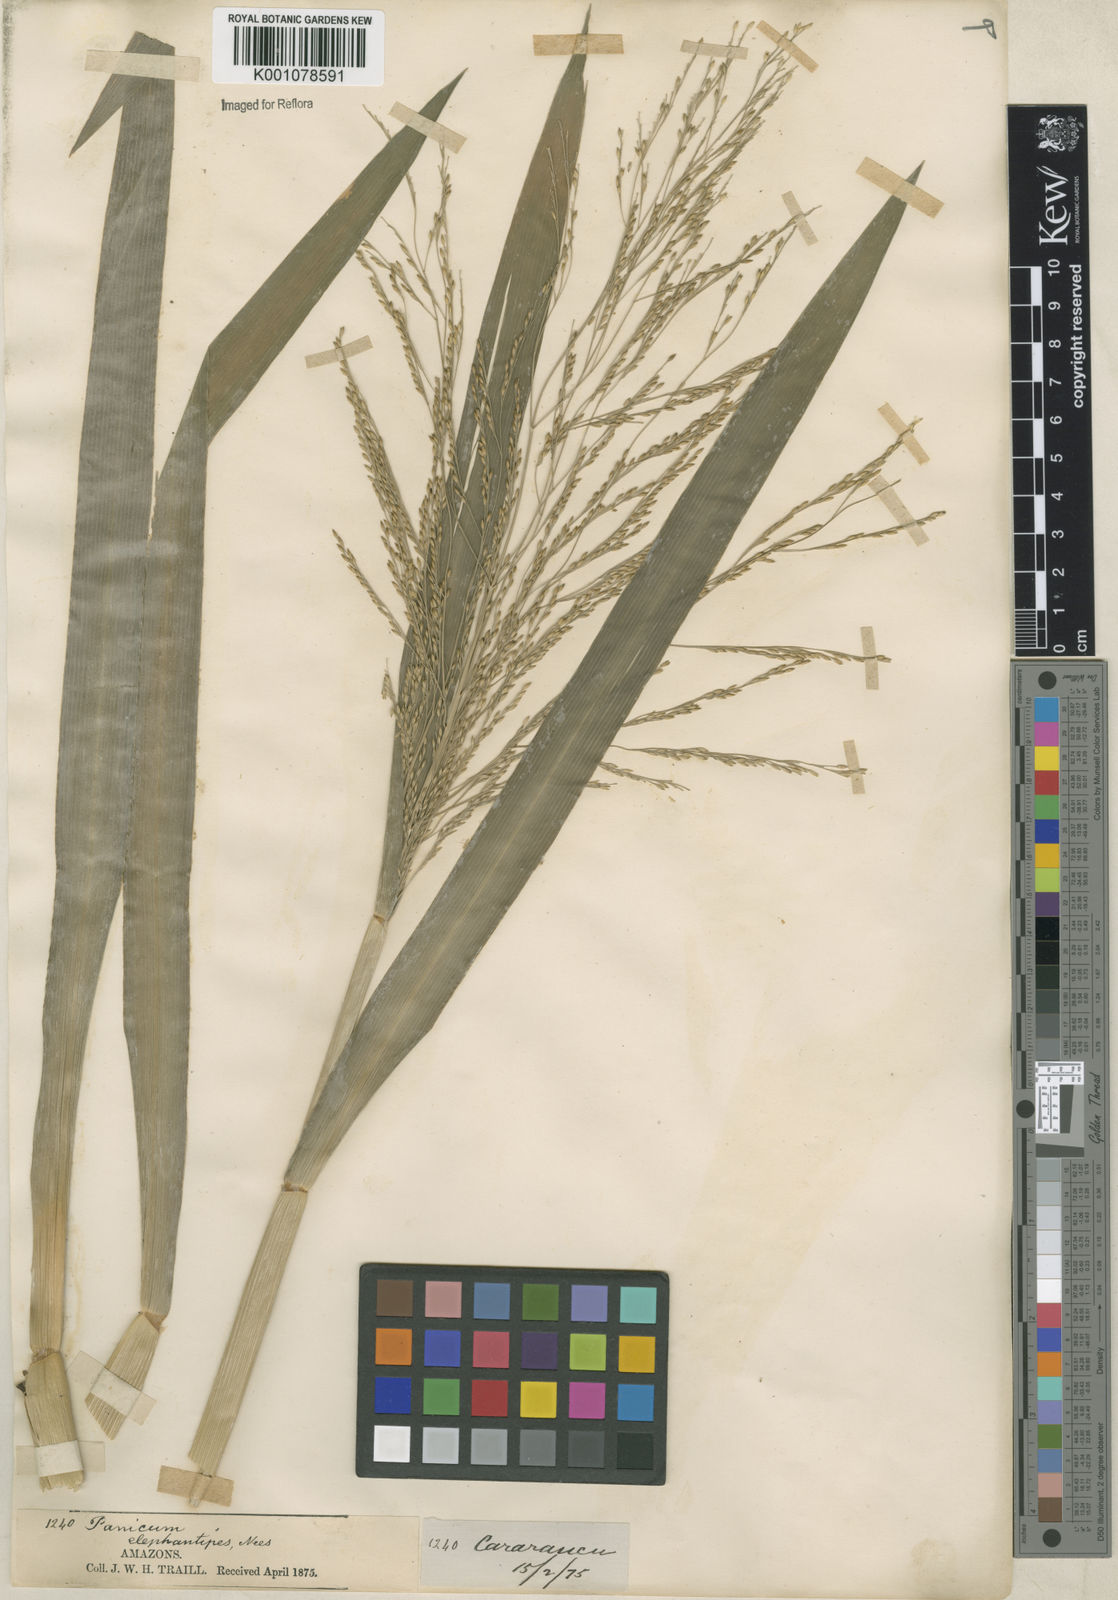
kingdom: Plantae
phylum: Tracheophyta
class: Liliopsida
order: Poales
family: Poaceae
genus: Panicum
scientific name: Panicum dichotomiflorum
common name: Autumn millet
